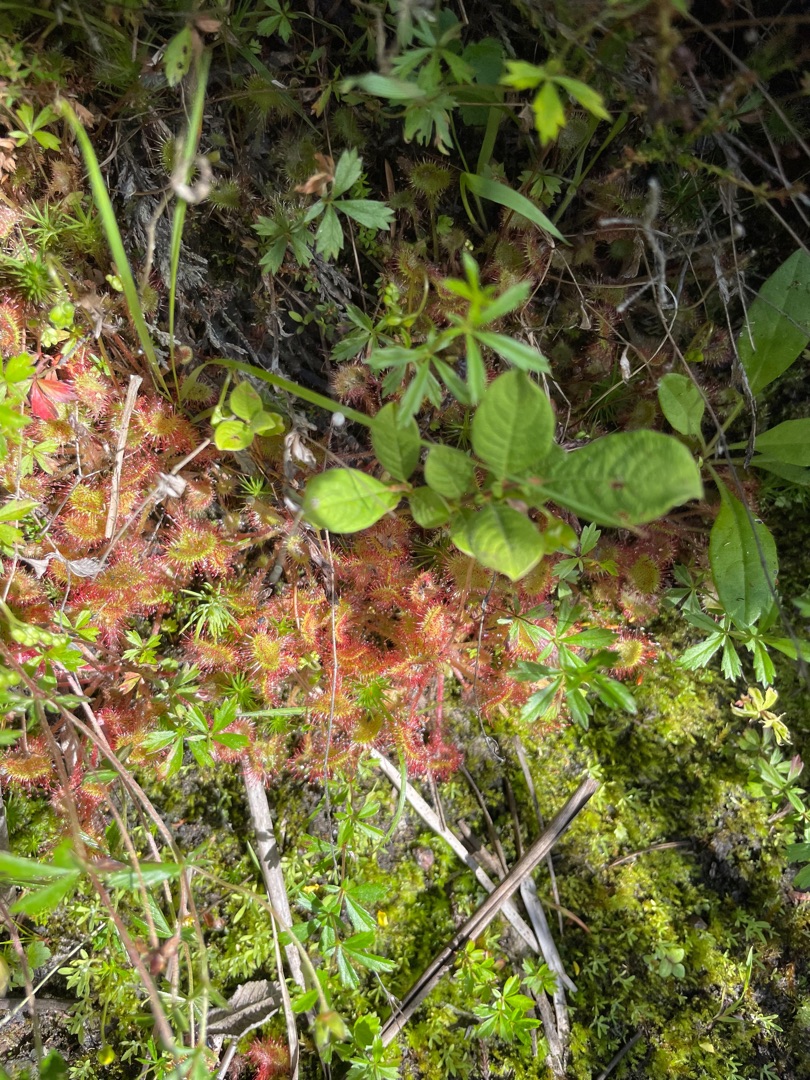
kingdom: Plantae
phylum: Tracheophyta
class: Magnoliopsida
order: Caryophyllales
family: Droseraceae
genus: Drosera
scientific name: Drosera rotundifolia
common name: Rundbladet soldug
